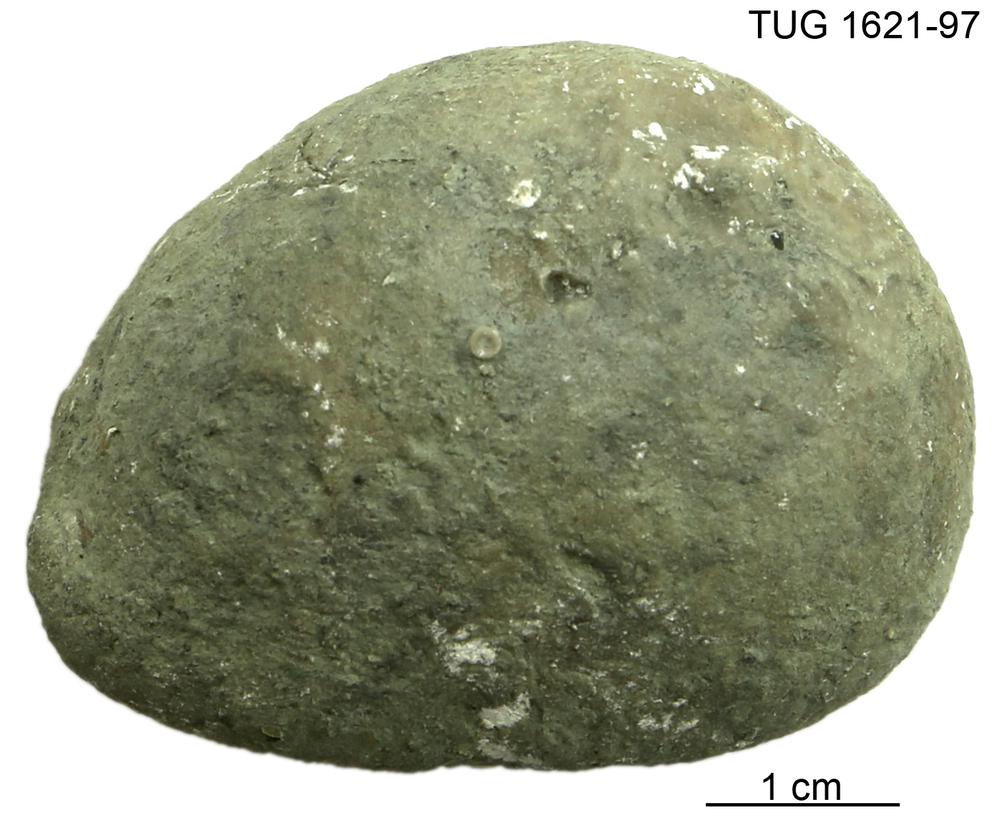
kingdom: Animalia
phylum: Porifera
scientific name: Porifera
